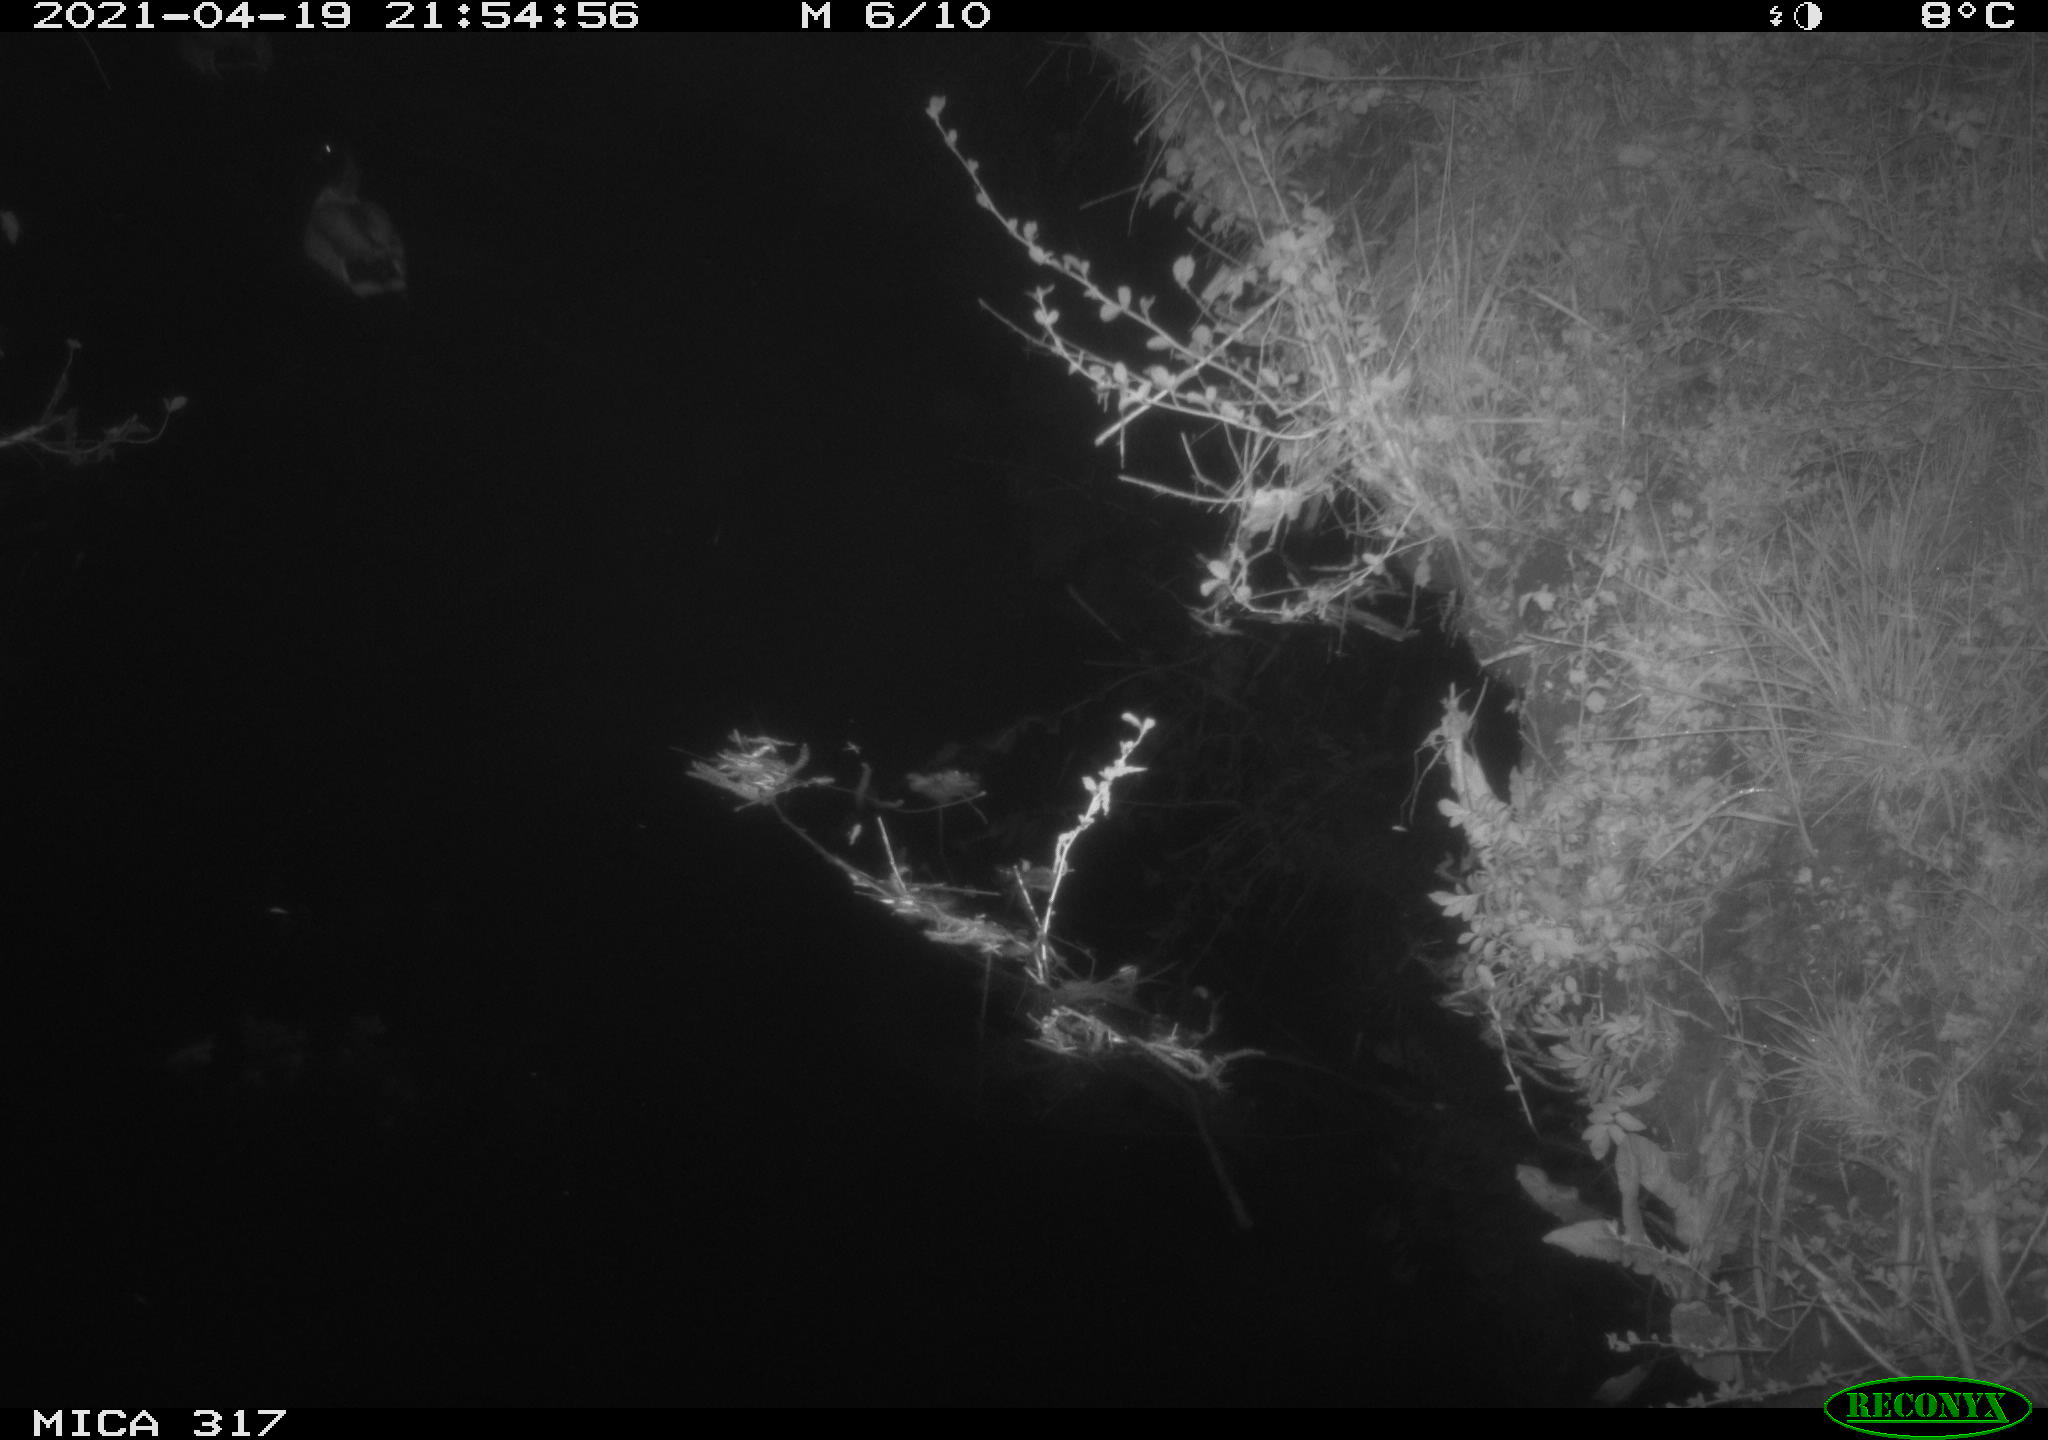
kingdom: Animalia
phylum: Chordata
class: Aves
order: Anseriformes
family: Anatidae
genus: Anas
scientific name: Anas platyrhynchos
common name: Mallard
